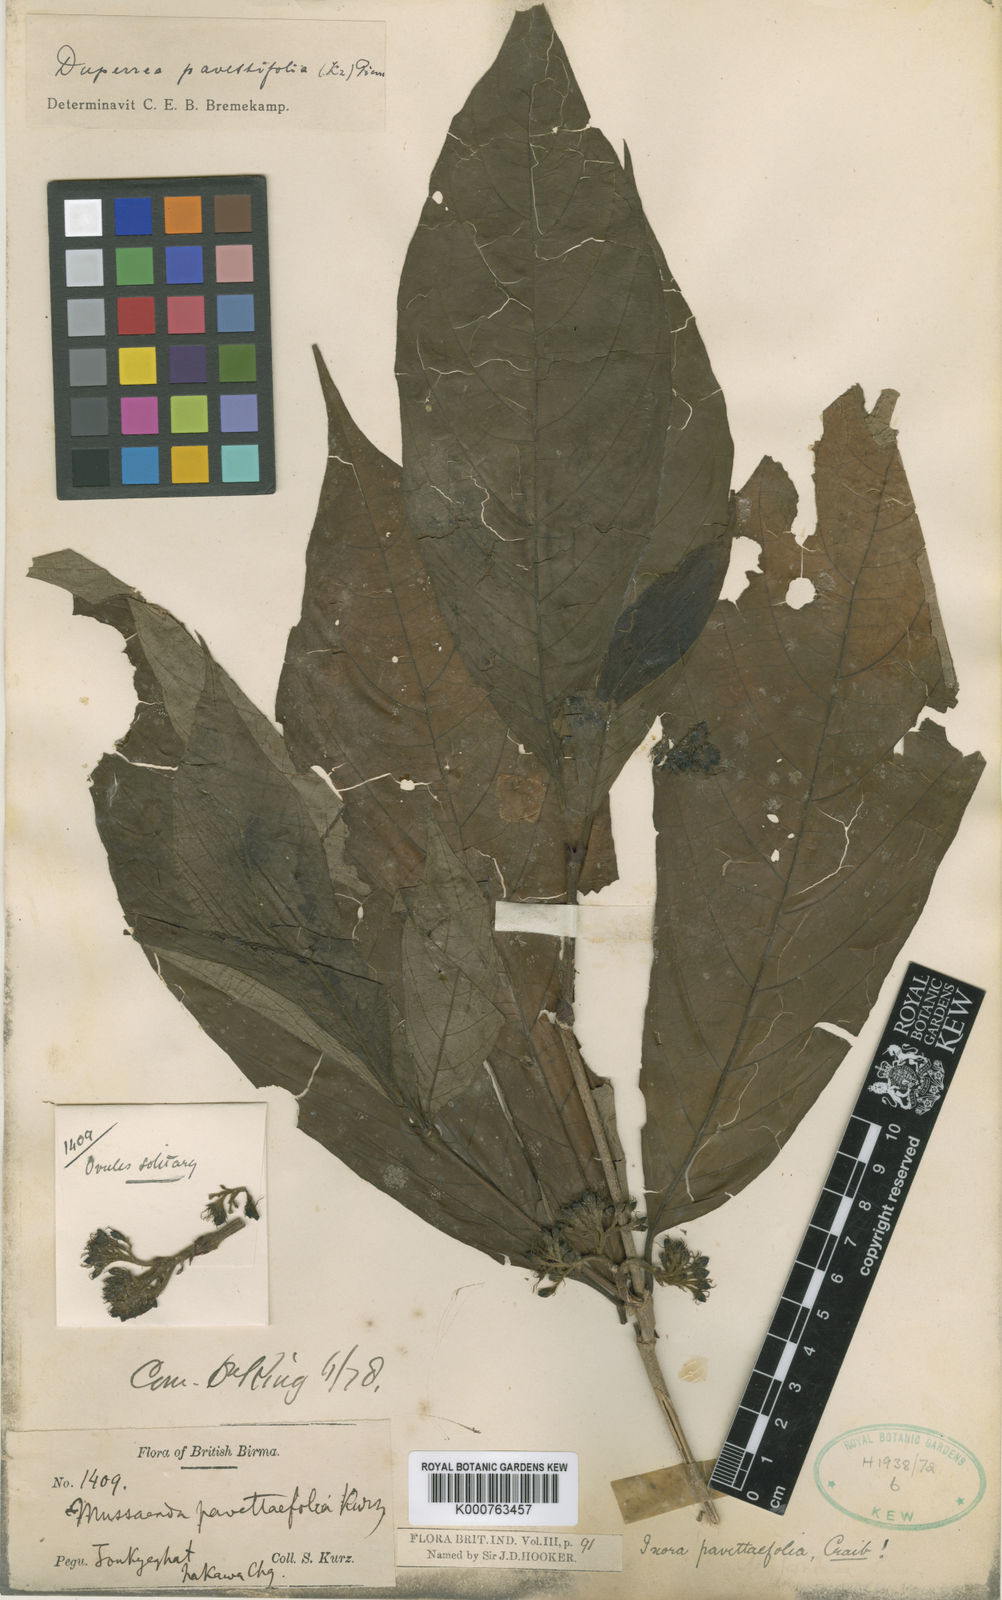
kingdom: Plantae
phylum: Tracheophyta
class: Magnoliopsida
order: Gentianales
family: Rubiaceae
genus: Duperrea
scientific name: Duperrea pavettifolia
